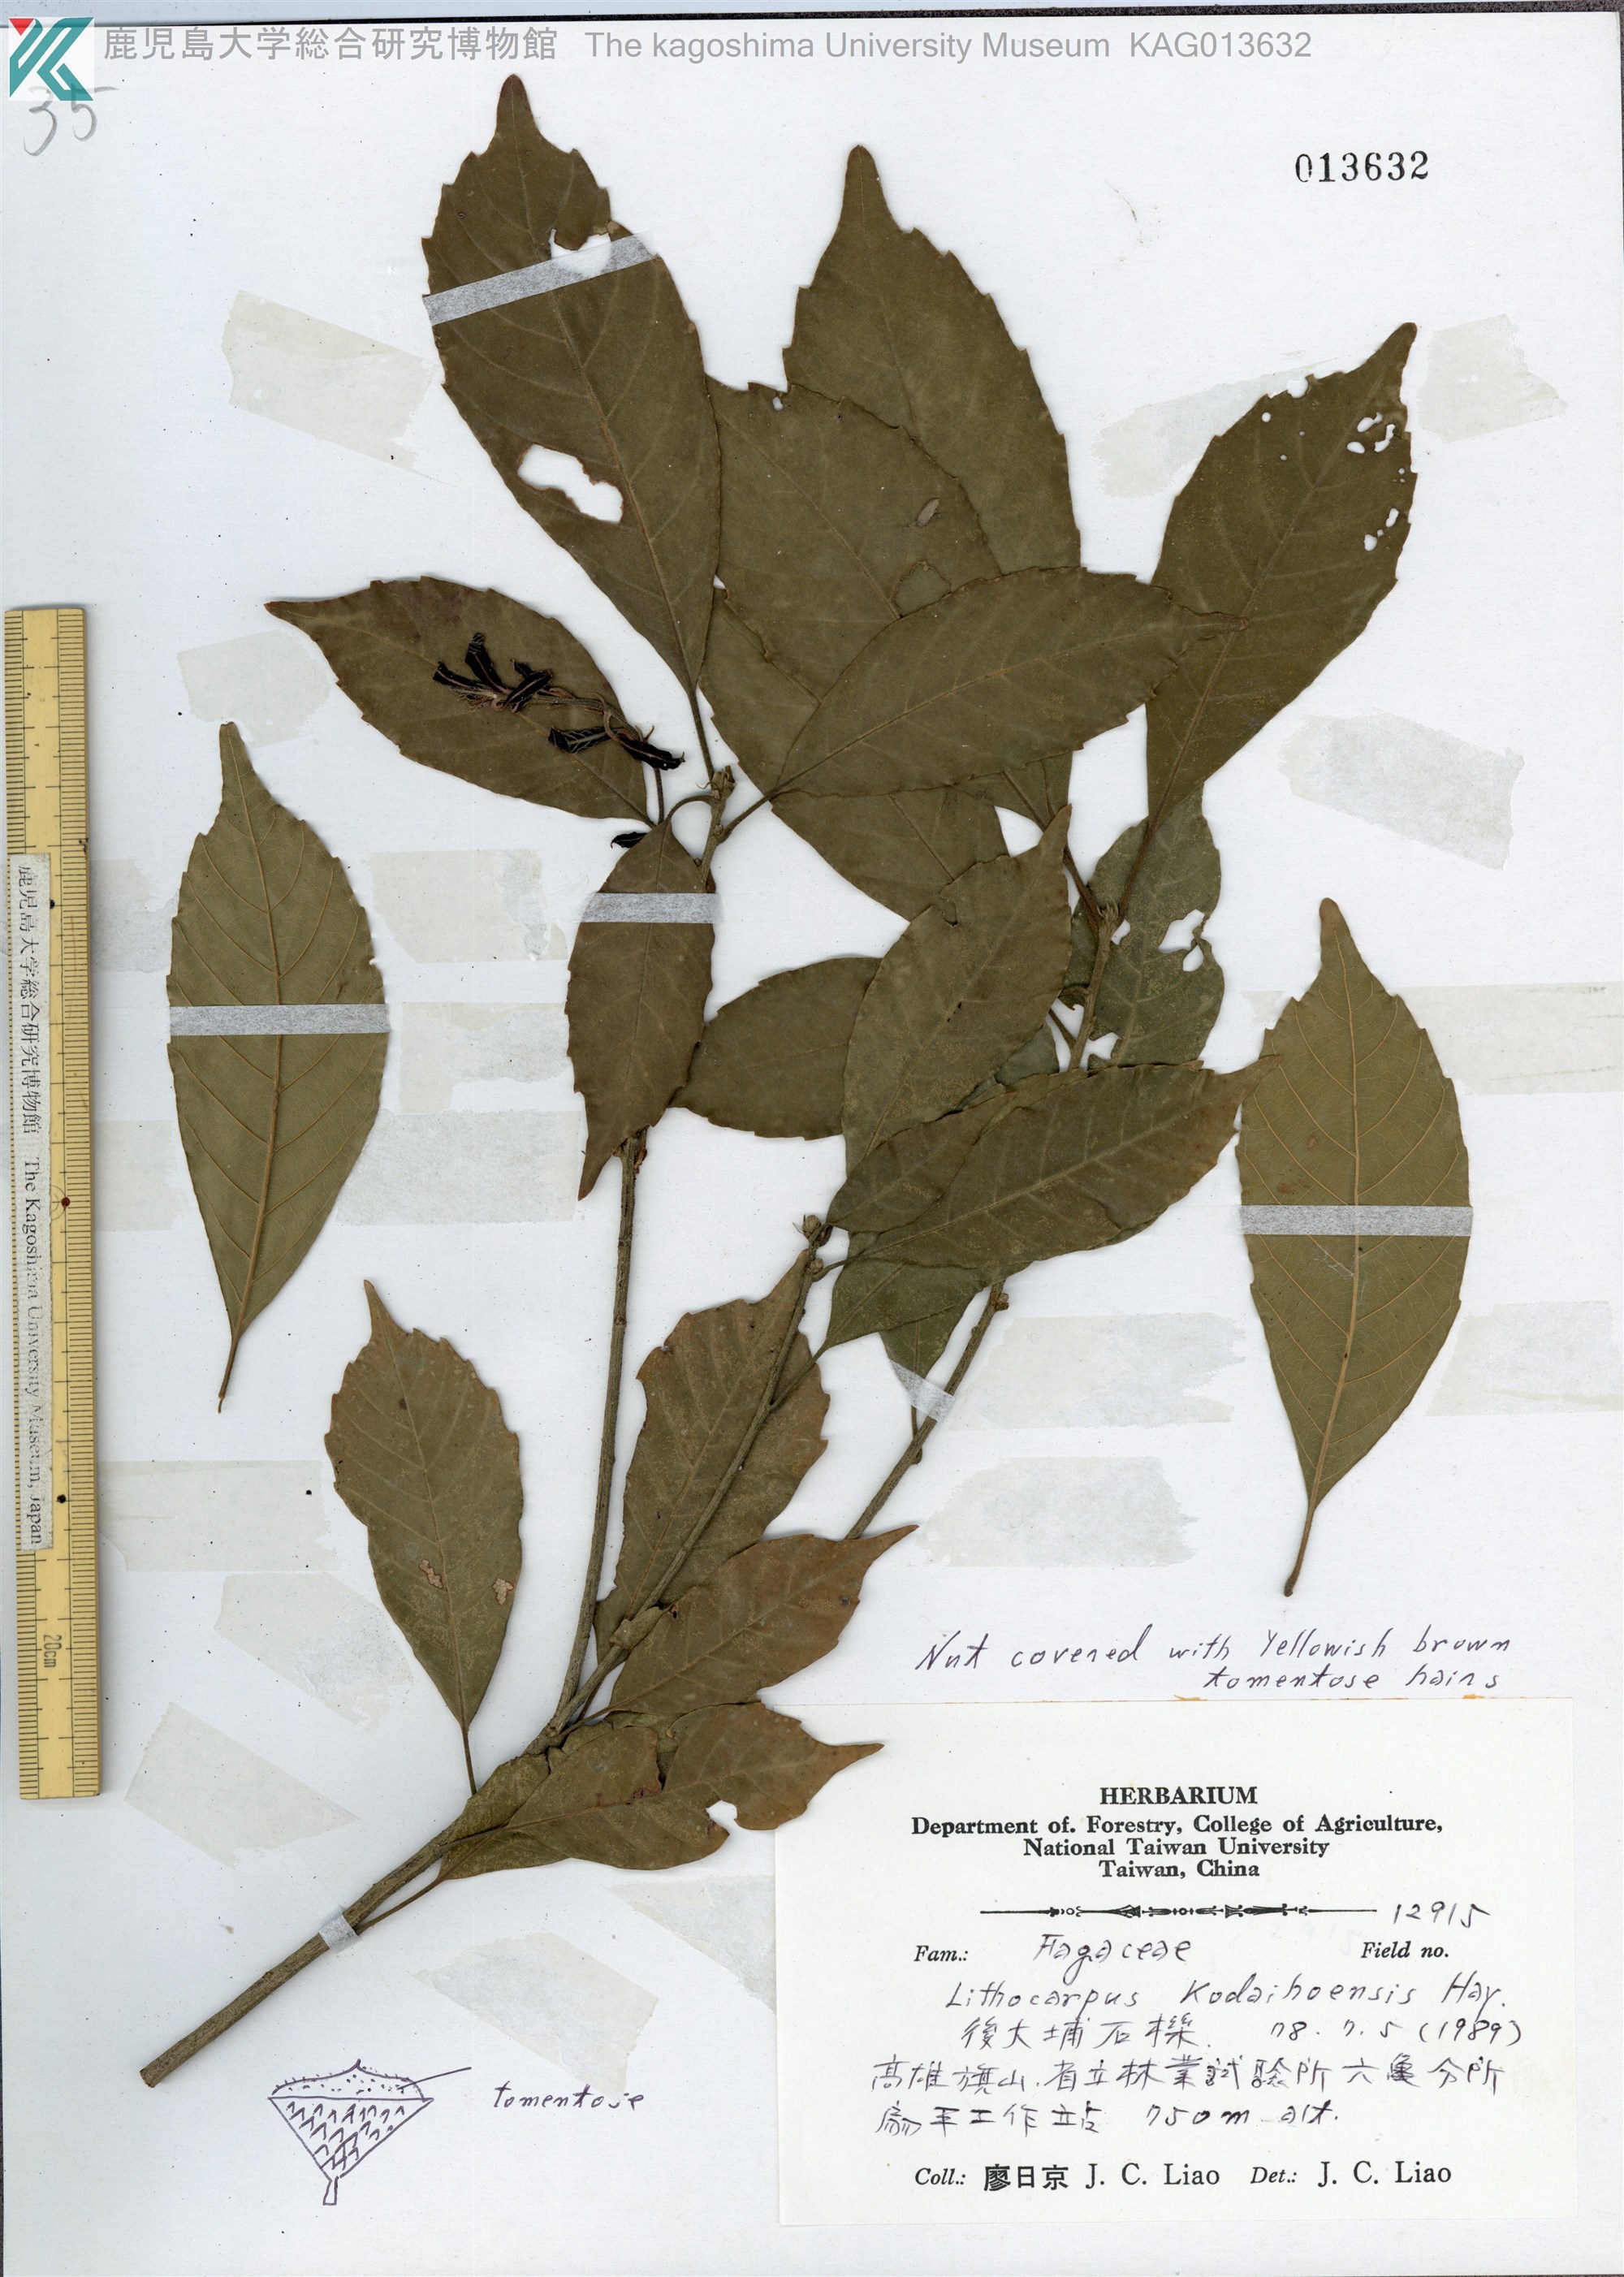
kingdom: Plantae
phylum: Tracheophyta
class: Magnoliopsida
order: Fagales
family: Fagaceae
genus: Lithocarpus
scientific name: Lithocarpus corneus
